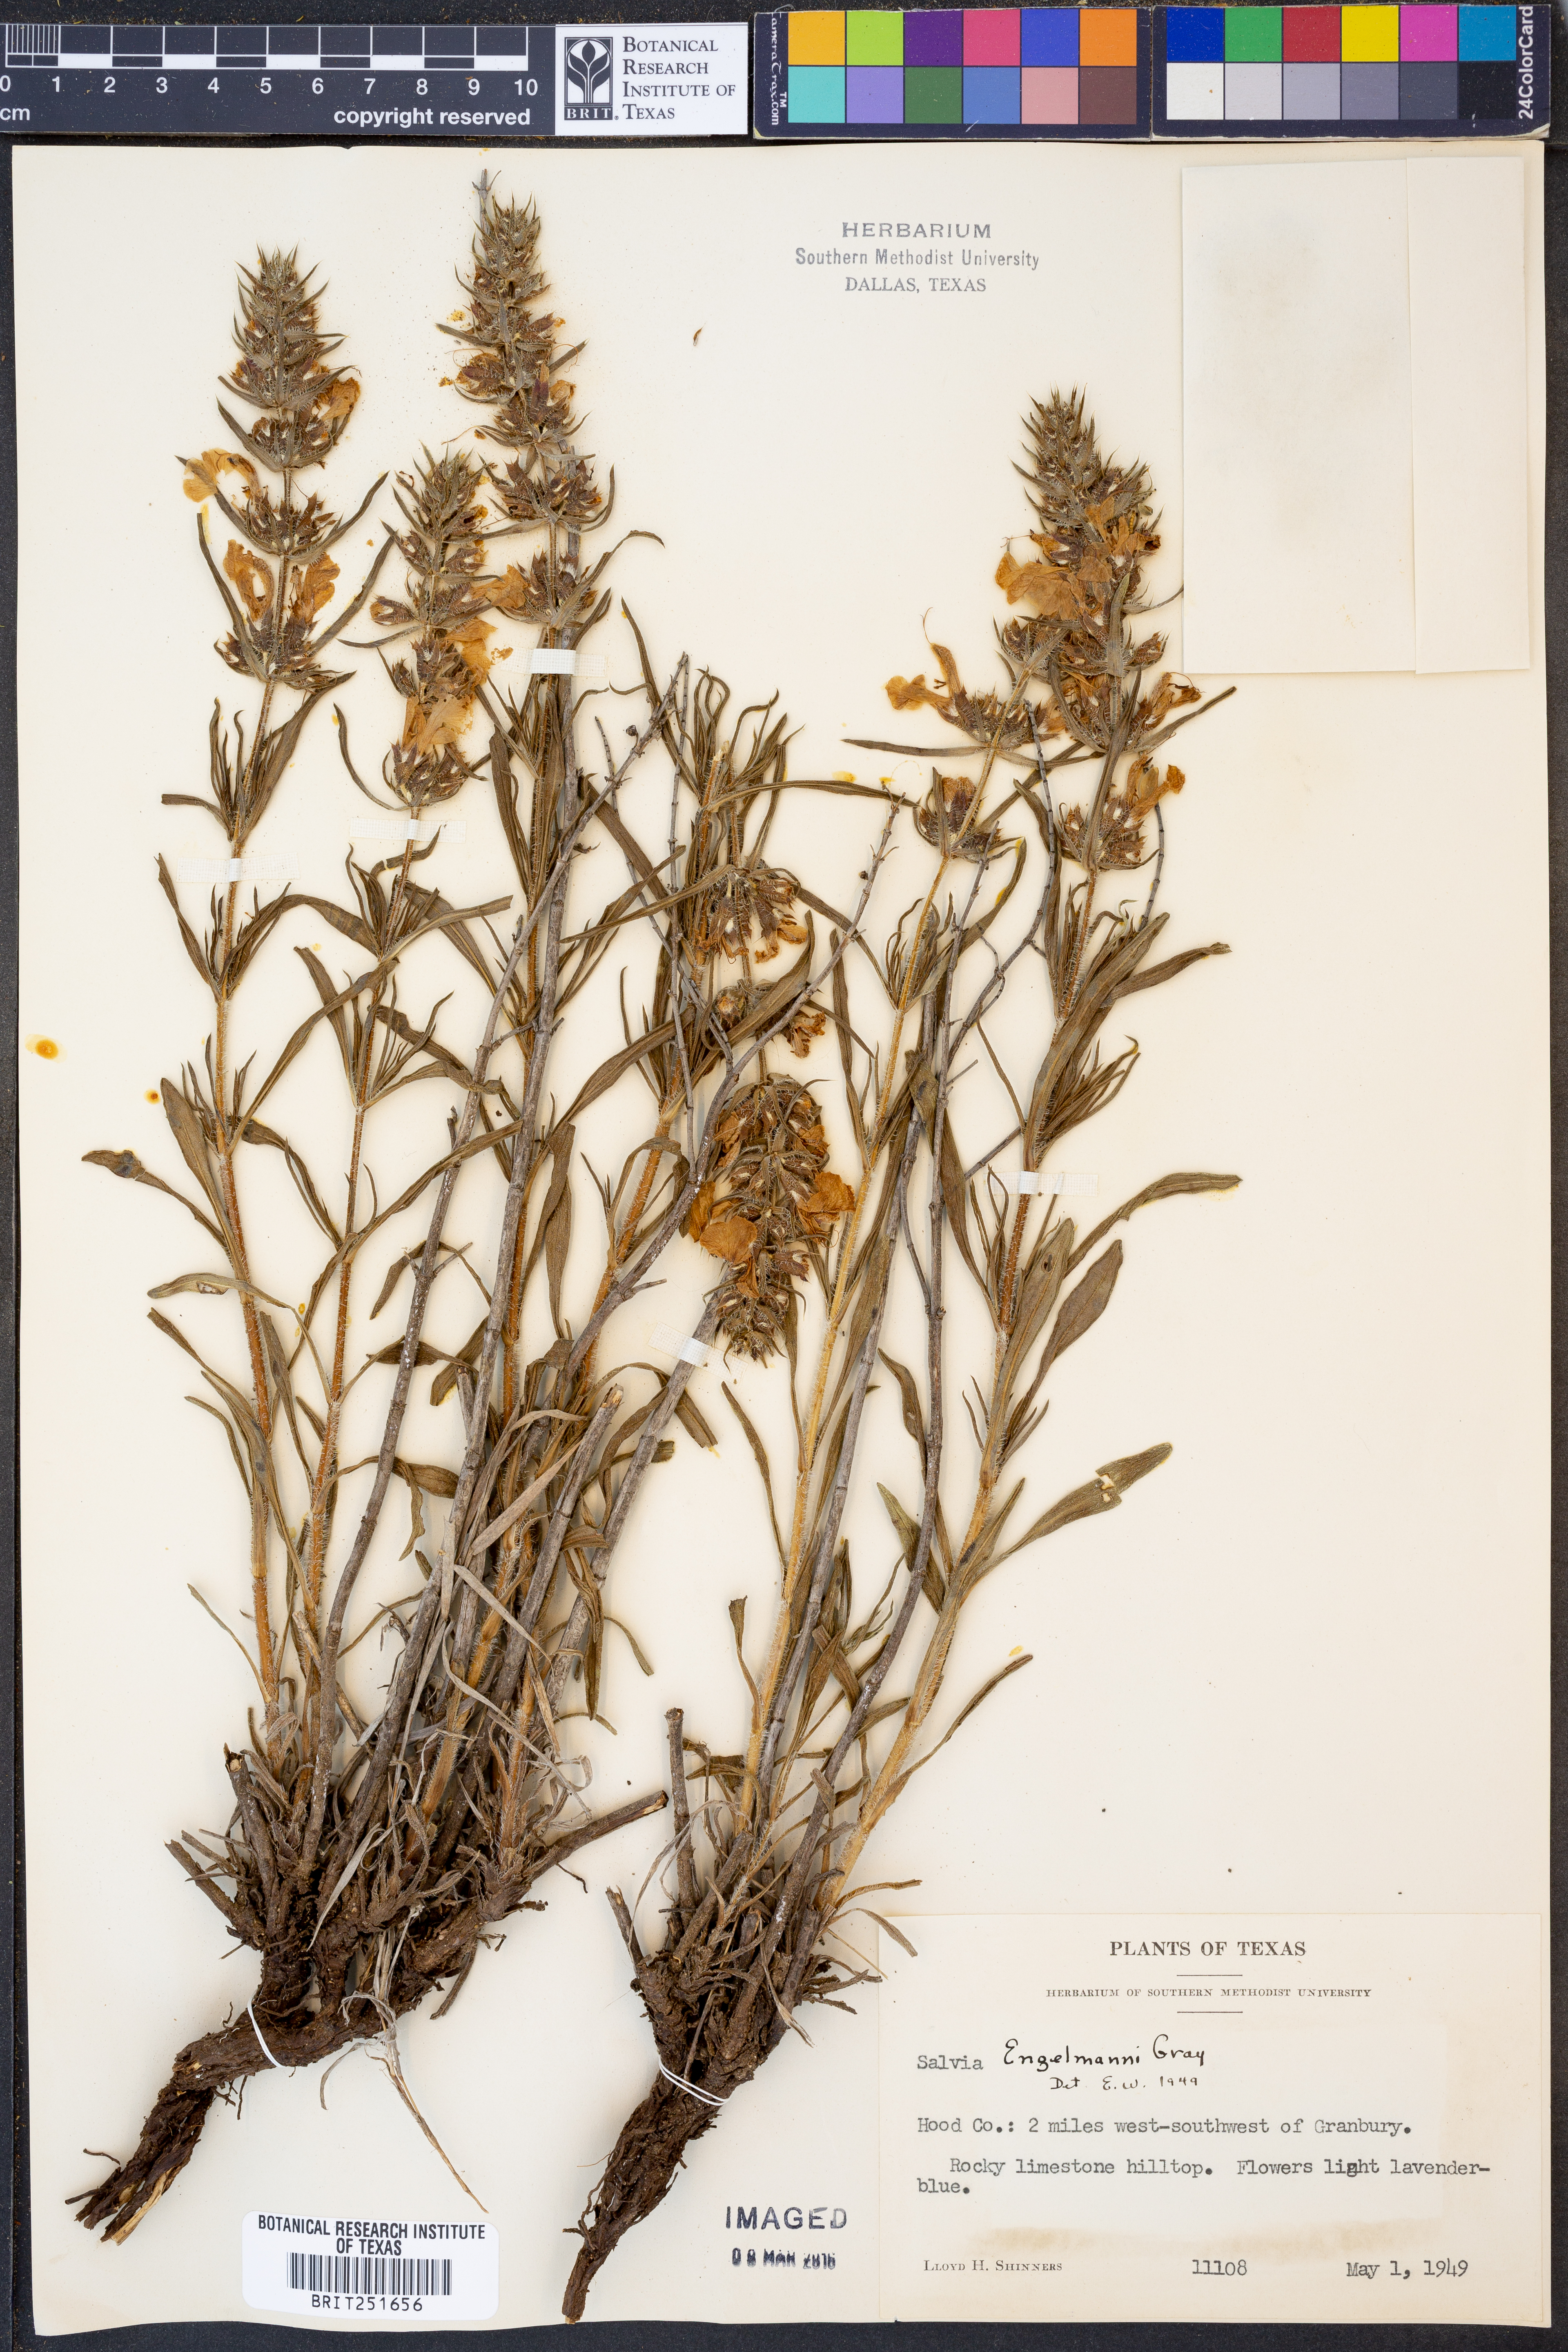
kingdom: Plantae
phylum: Tracheophyta
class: Magnoliopsida
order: Lamiales
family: Lamiaceae
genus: Salvia
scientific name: Salvia engelmannii
